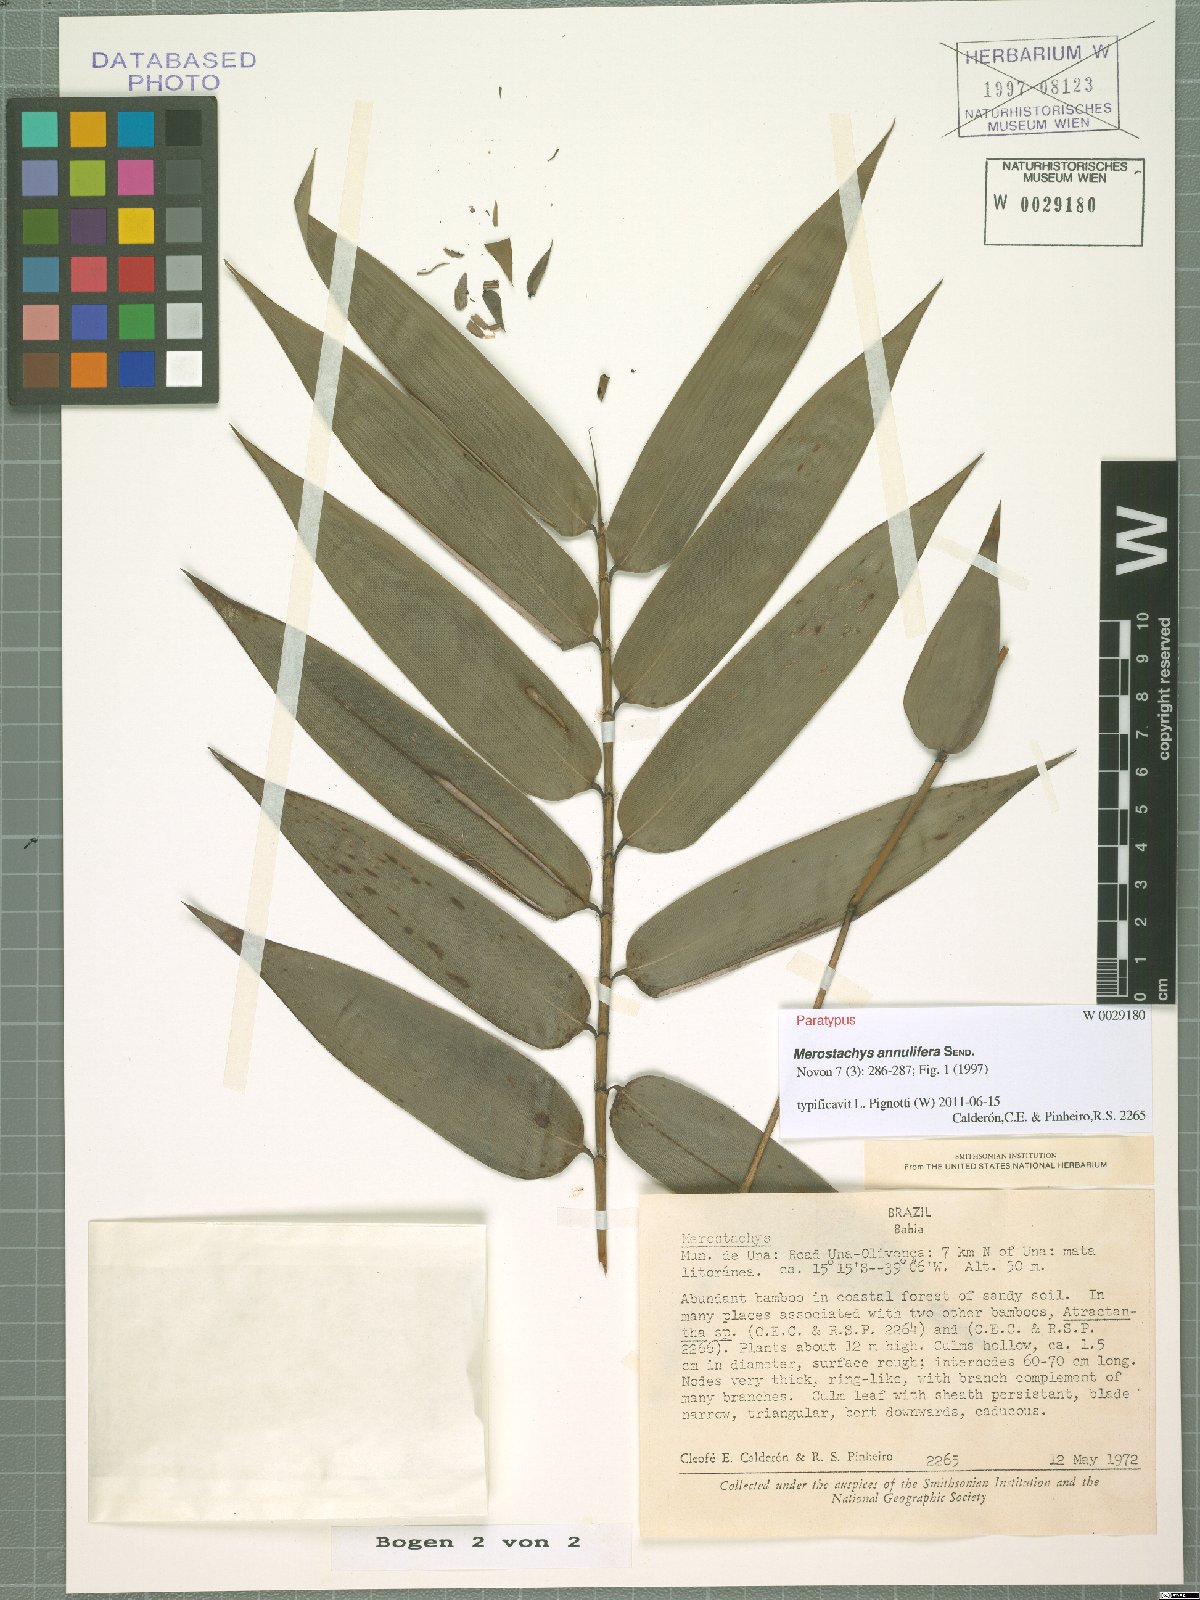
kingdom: Plantae
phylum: Tracheophyta
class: Liliopsida
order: Poales
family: Poaceae
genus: Merostachys
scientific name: Merostachys annulifera
